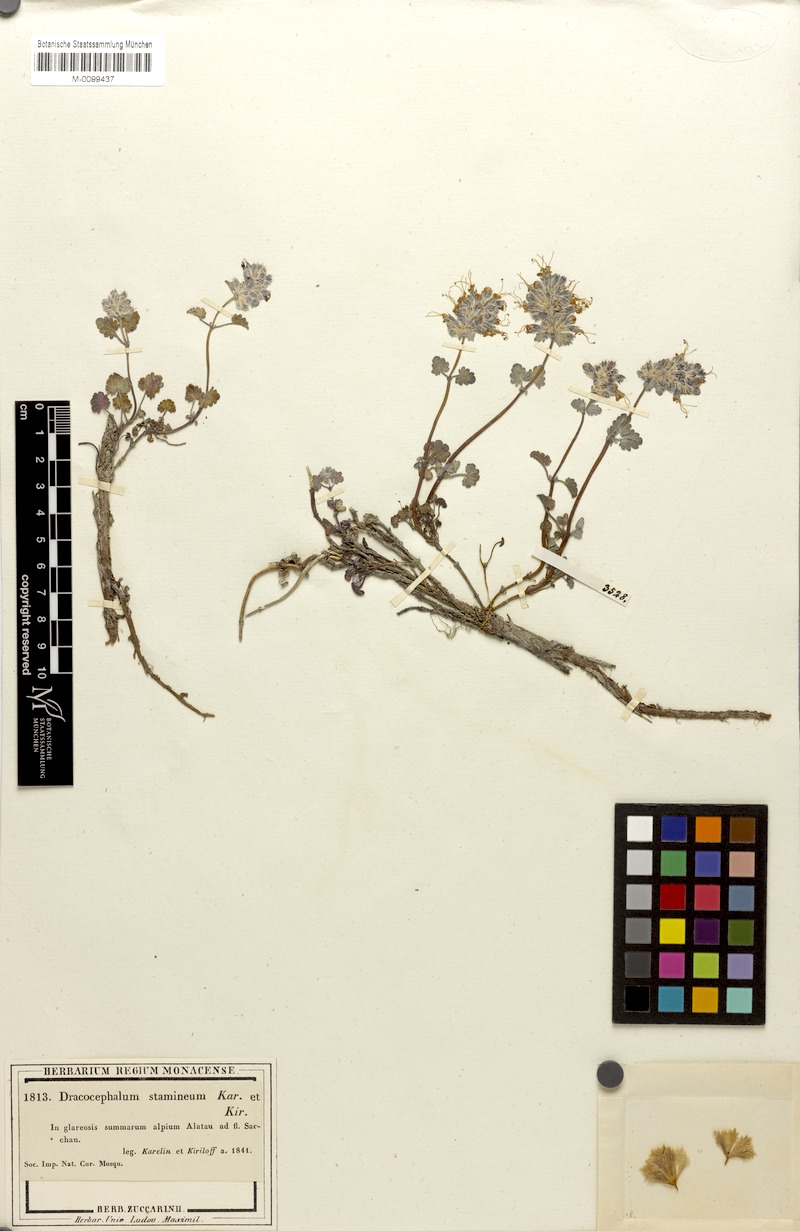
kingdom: Plantae
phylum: Tracheophyta
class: Magnoliopsida
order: Lamiales
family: Lamiaceae
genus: Dracocephalum
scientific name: Dracocephalum stamineum
